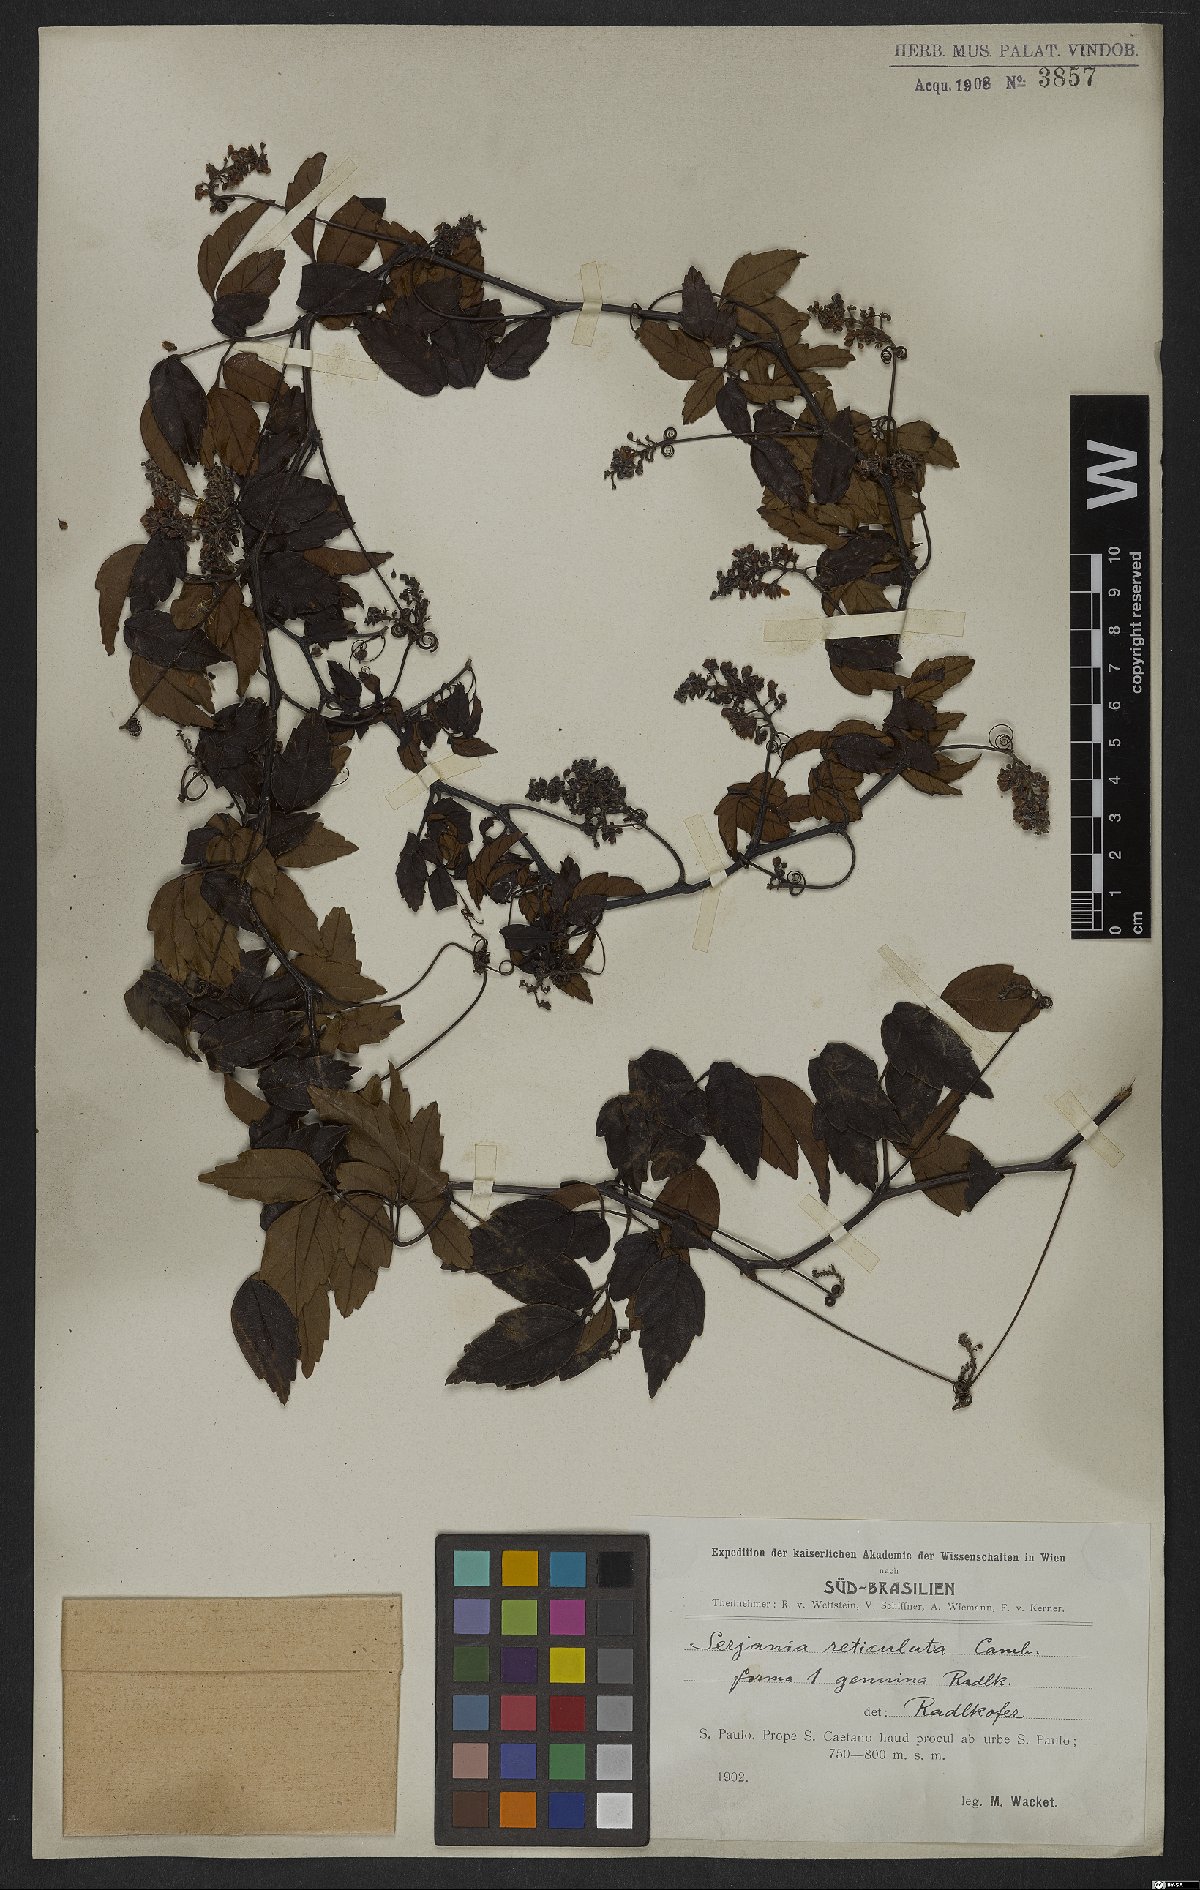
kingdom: Plantae
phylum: Tracheophyta
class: Magnoliopsida
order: Sapindales
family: Sapindaceae
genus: Serjania
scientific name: Serjania reticulata
